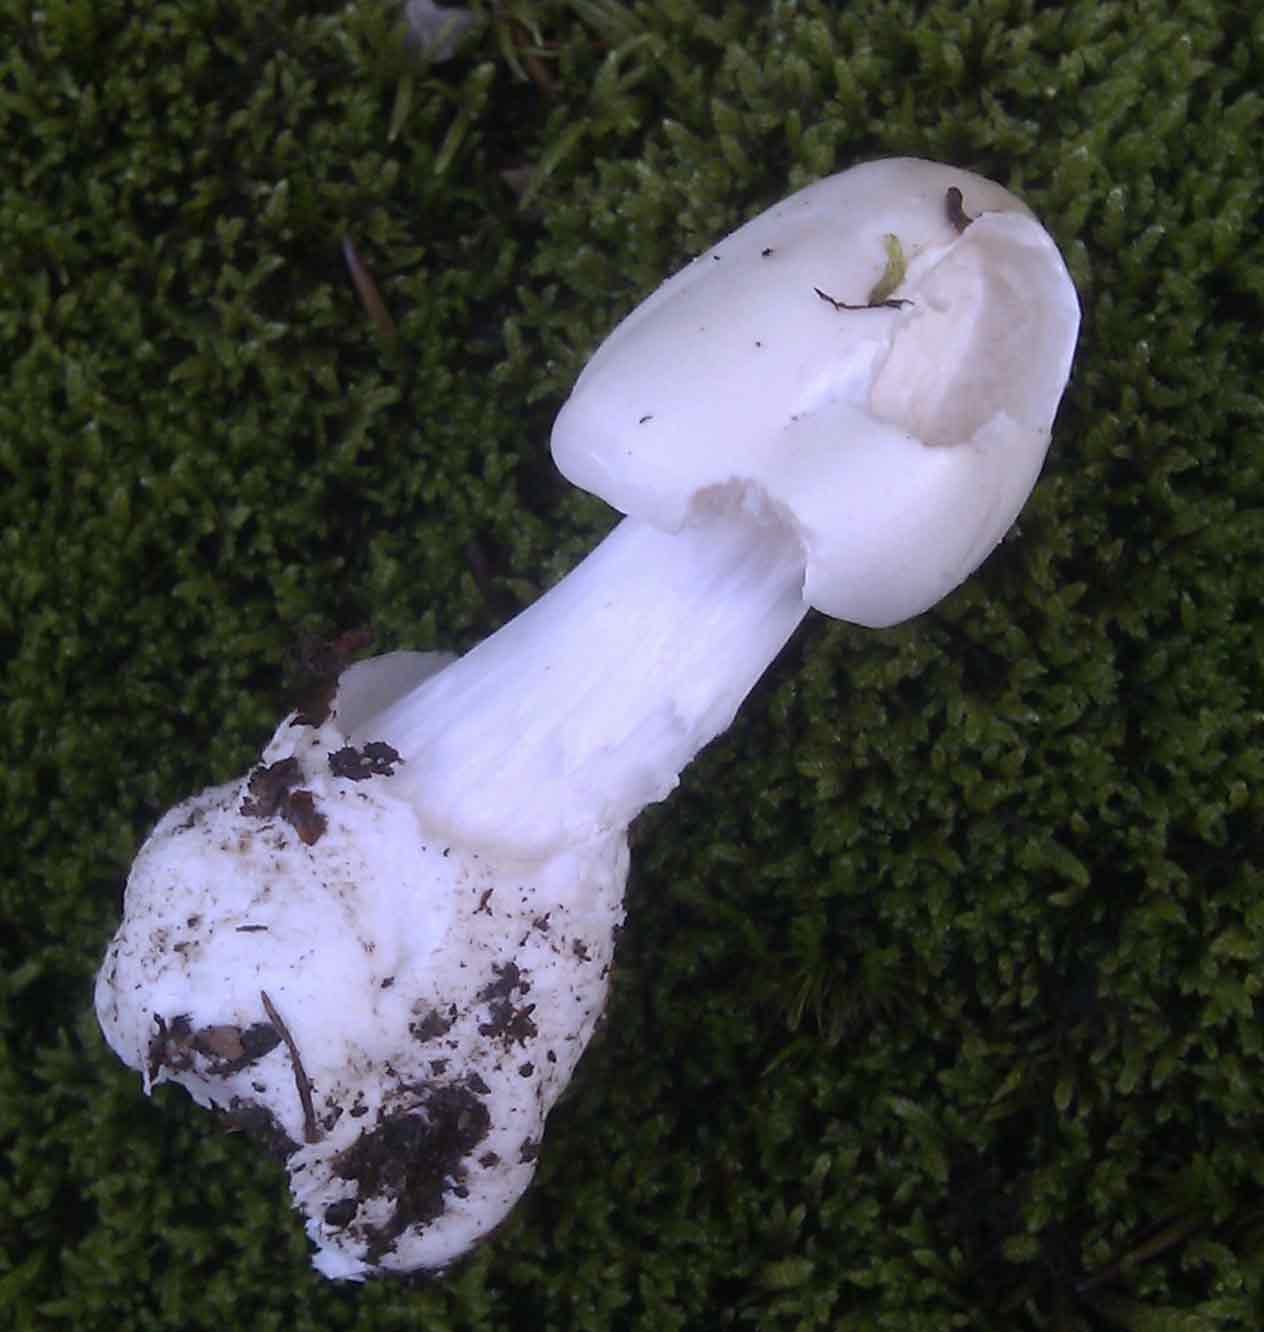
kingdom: Fungi
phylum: Basidiomycota
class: Agaricomycetes
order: Agaricales
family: Amanitaceae
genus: Amanita
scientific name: Amanita virosa
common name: snehvid fluesvamp
